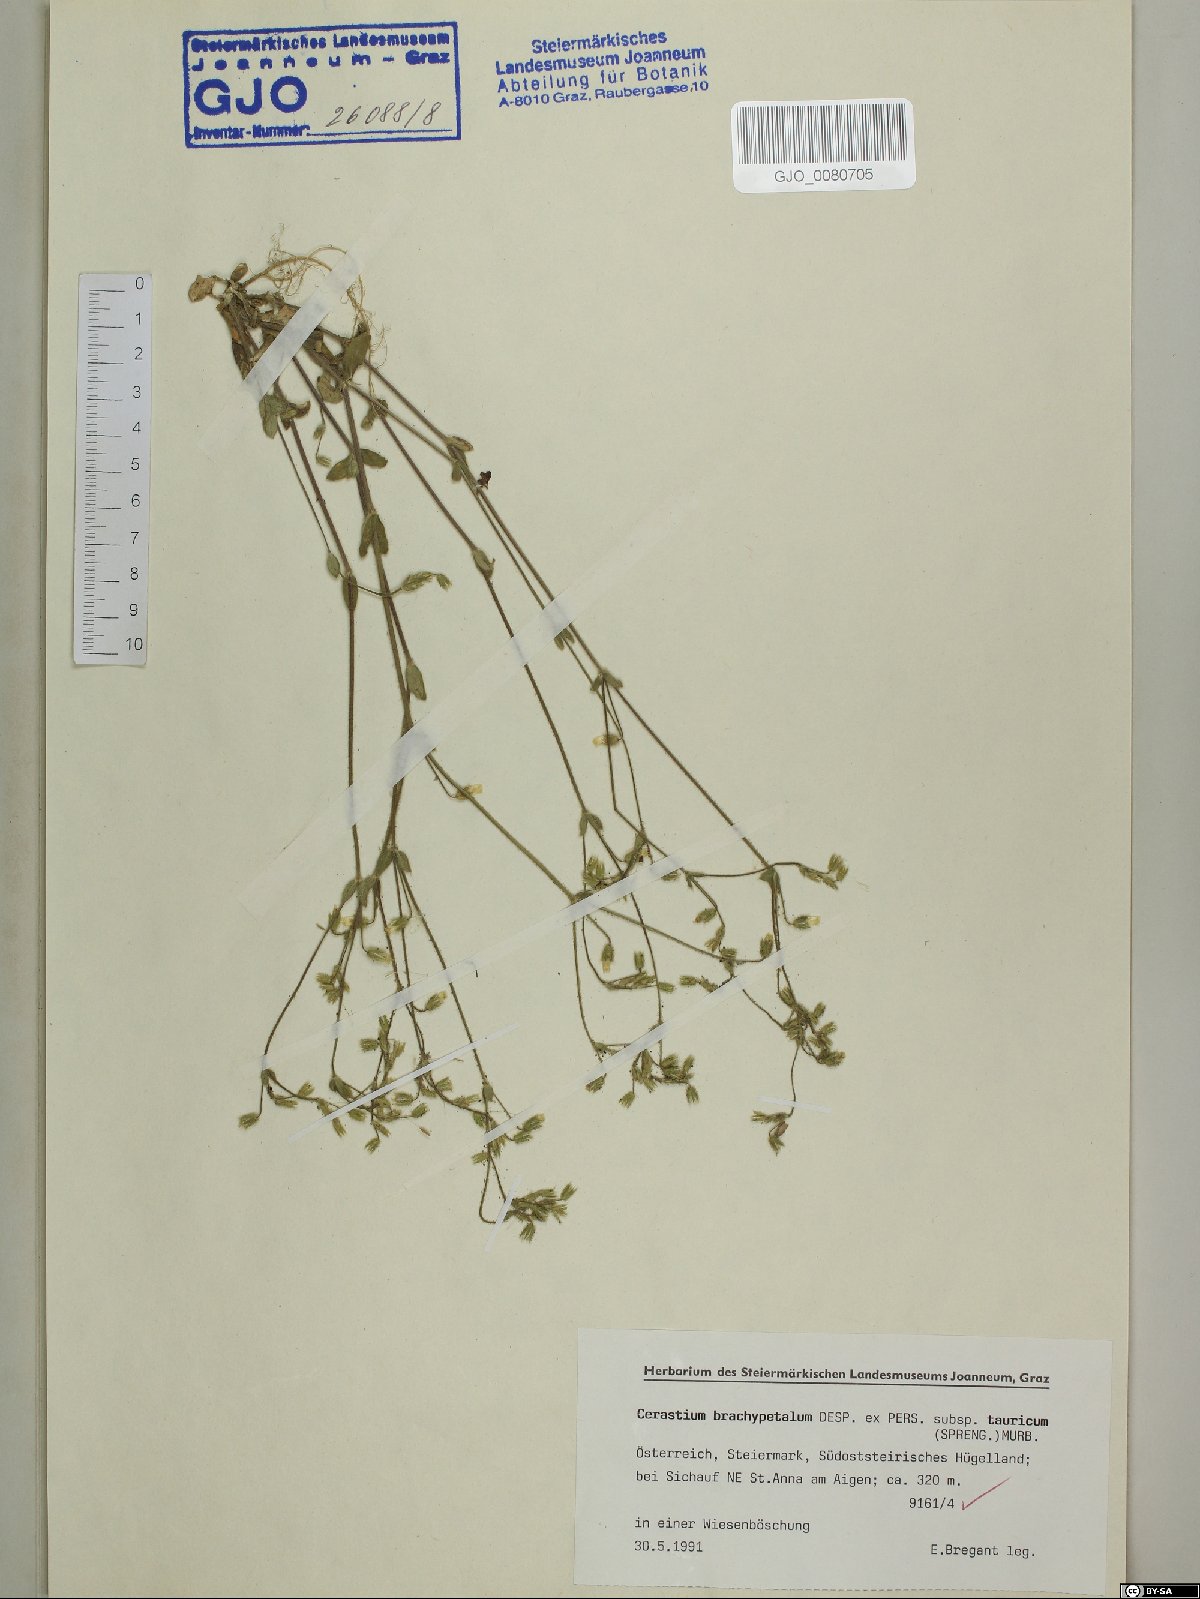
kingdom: Plantae
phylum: Tracheophyta
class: Magnoliopsida
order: Caryophyllales
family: Caryophyllaceae
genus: Cerastium
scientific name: Cerastium brachypetalum
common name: Grey mouse-ear
